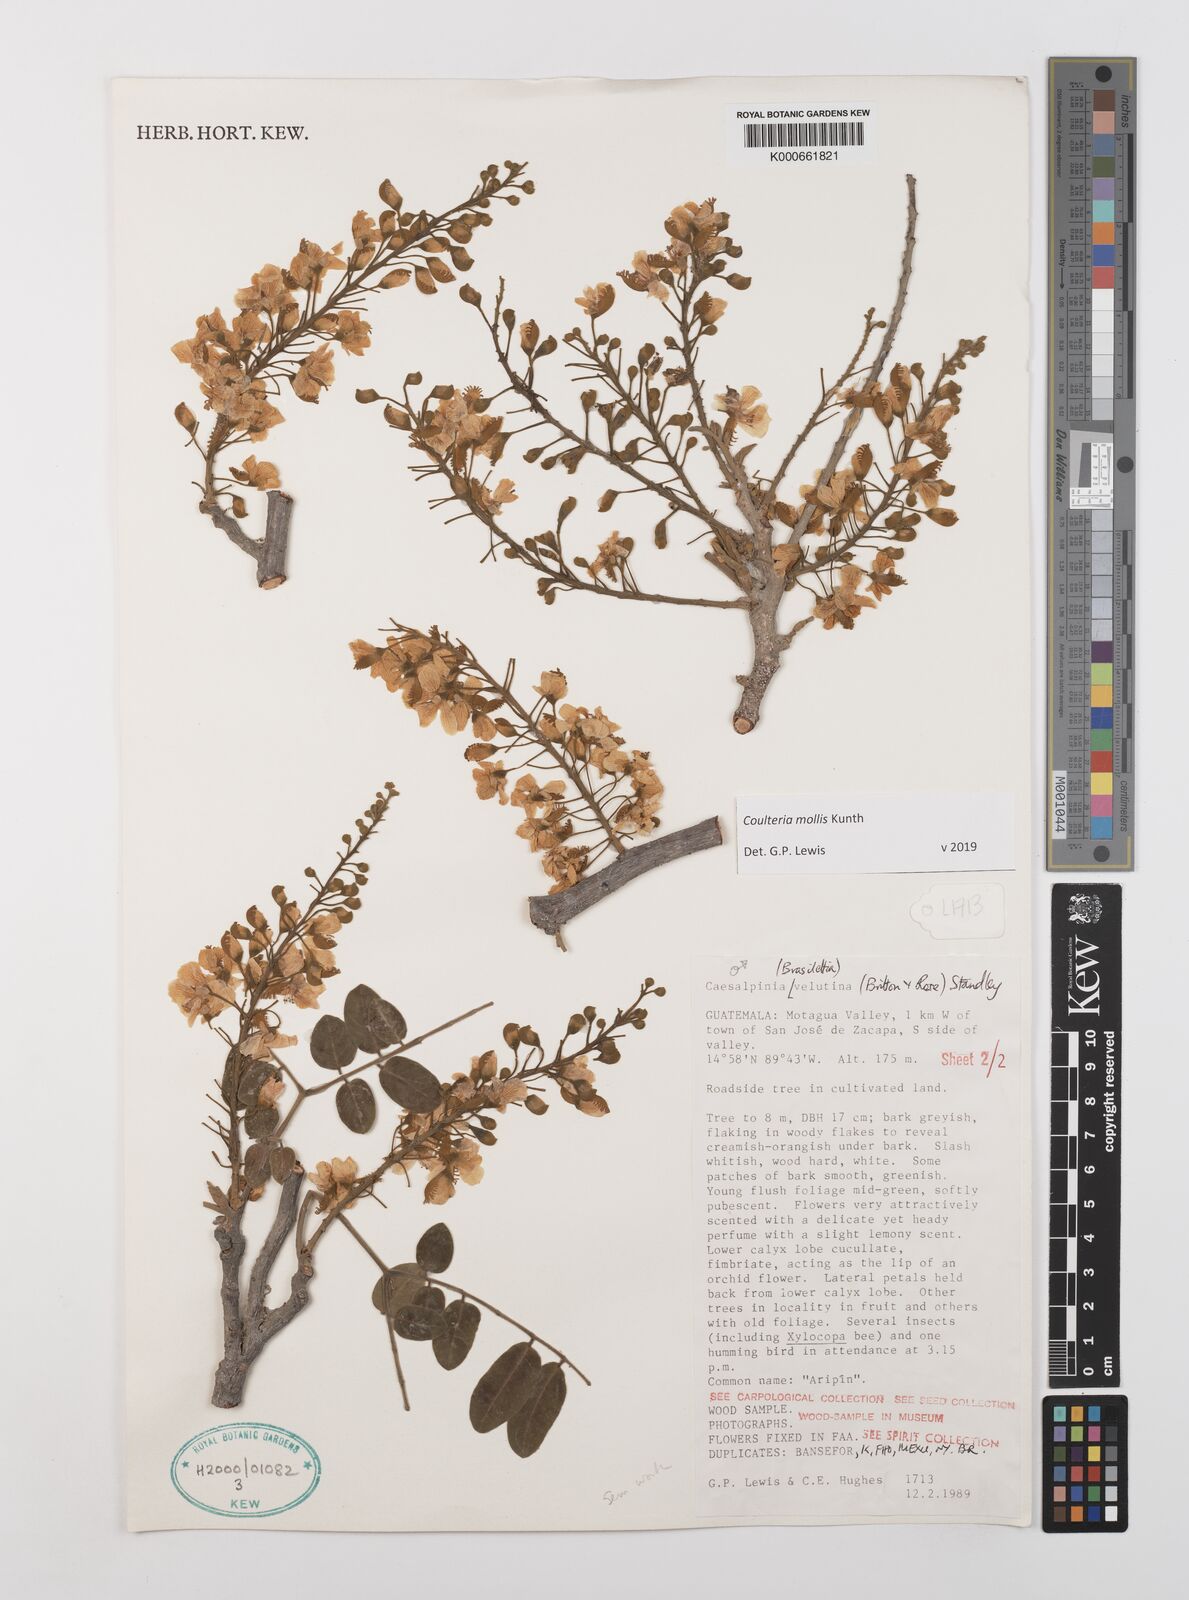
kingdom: Plantae
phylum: Tracheophyta
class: Magnoliopsida
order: Fabales
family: Fabaceae
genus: Coulteria
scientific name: Coulteria velutina
